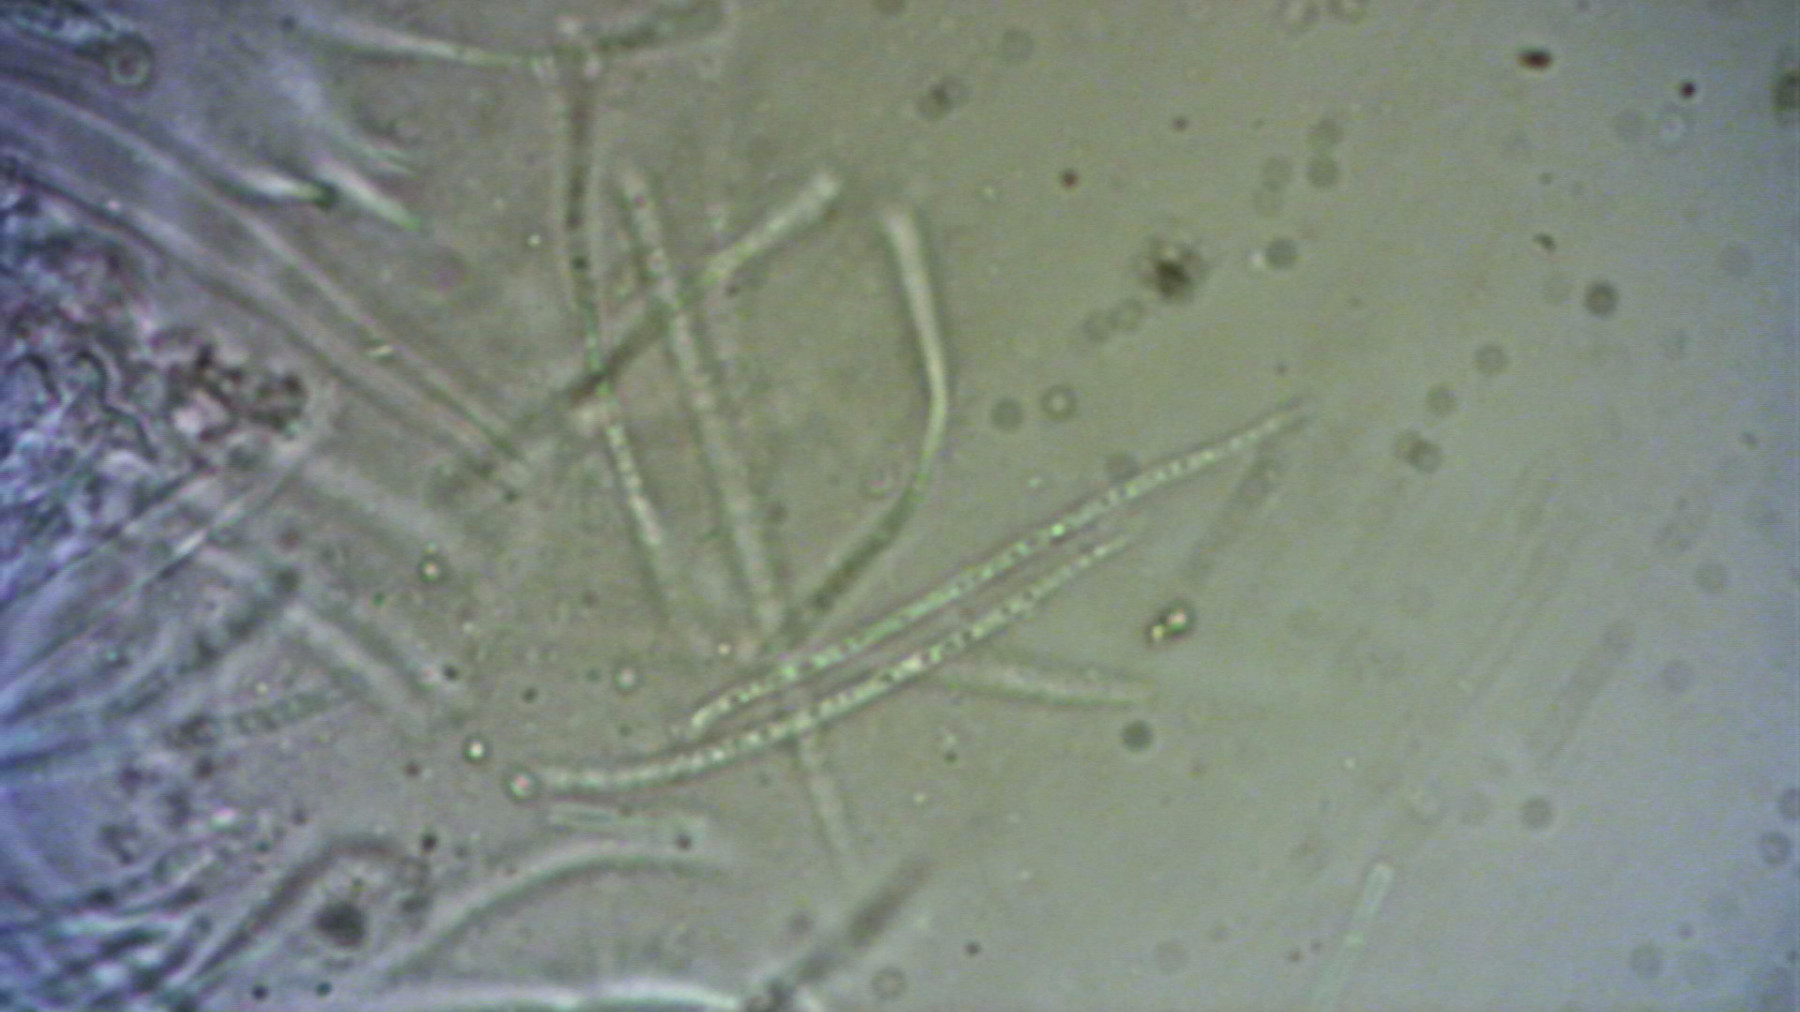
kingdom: Fungi
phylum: Ascomycota
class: Leotiomycetes
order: Rhytismatales
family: Rhytismataceae
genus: Lophodermium
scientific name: Lophodermium arundinaceum
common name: almindelig fureplet
